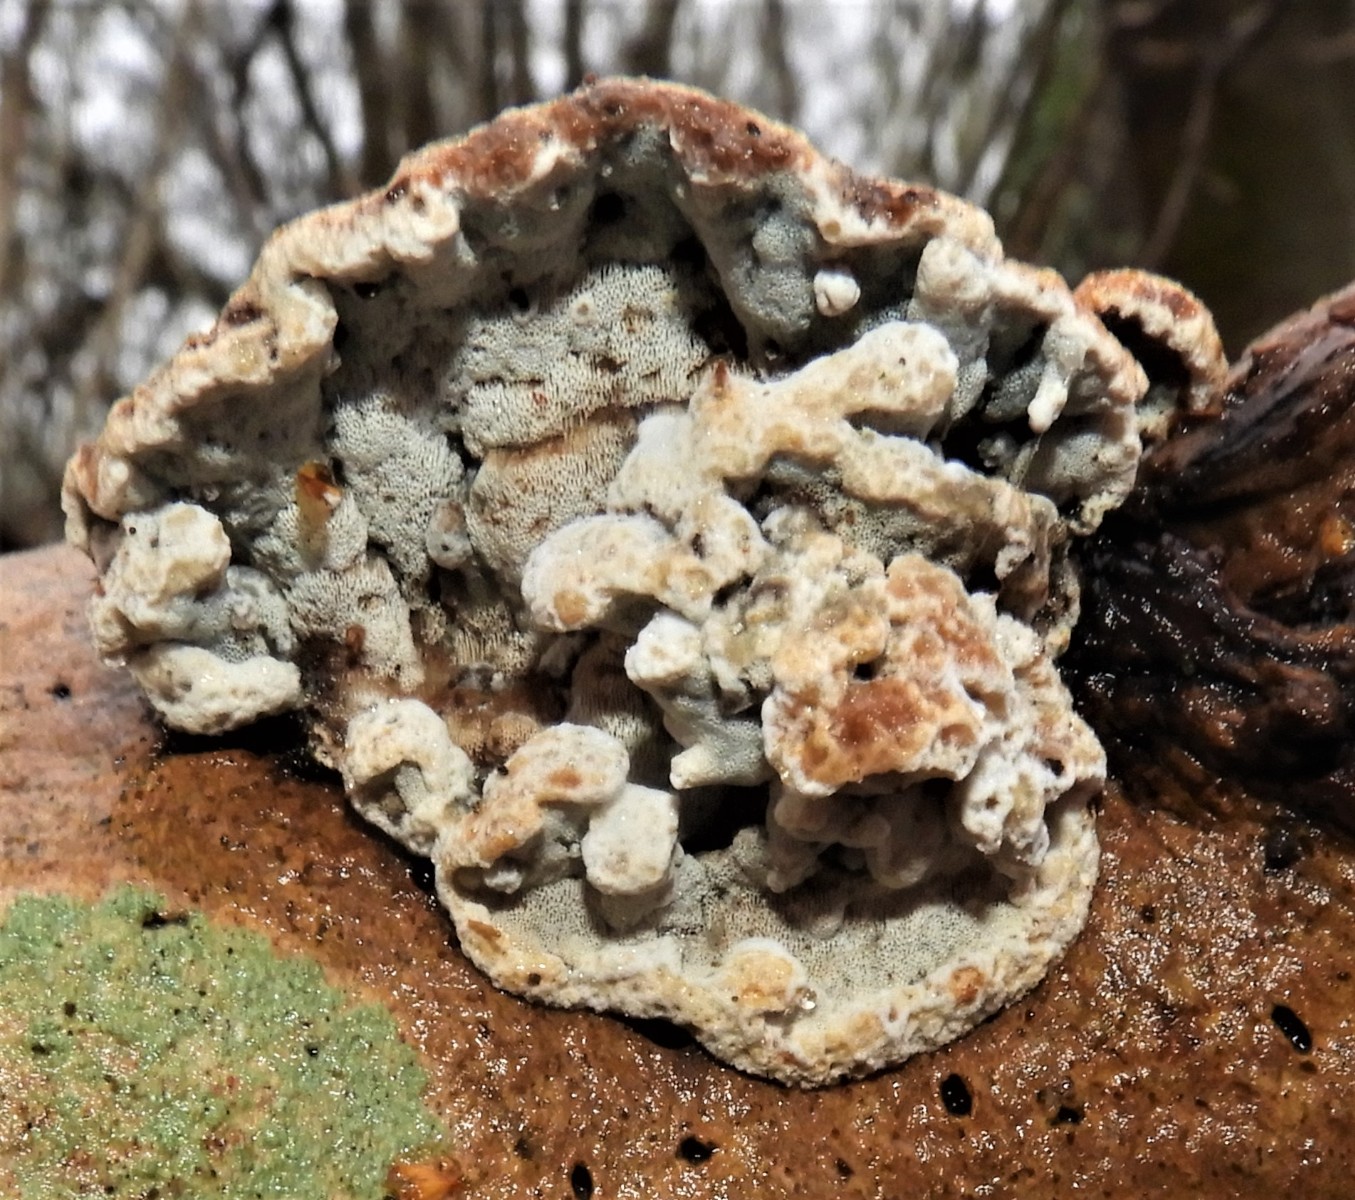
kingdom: Fungi
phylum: Basidiomycota
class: Agaricomycetes
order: Polyporales
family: Incrustoporiaceae
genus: Skeletocutis
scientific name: Skeletocutis nemoralis
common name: stor krystalporesvamp
